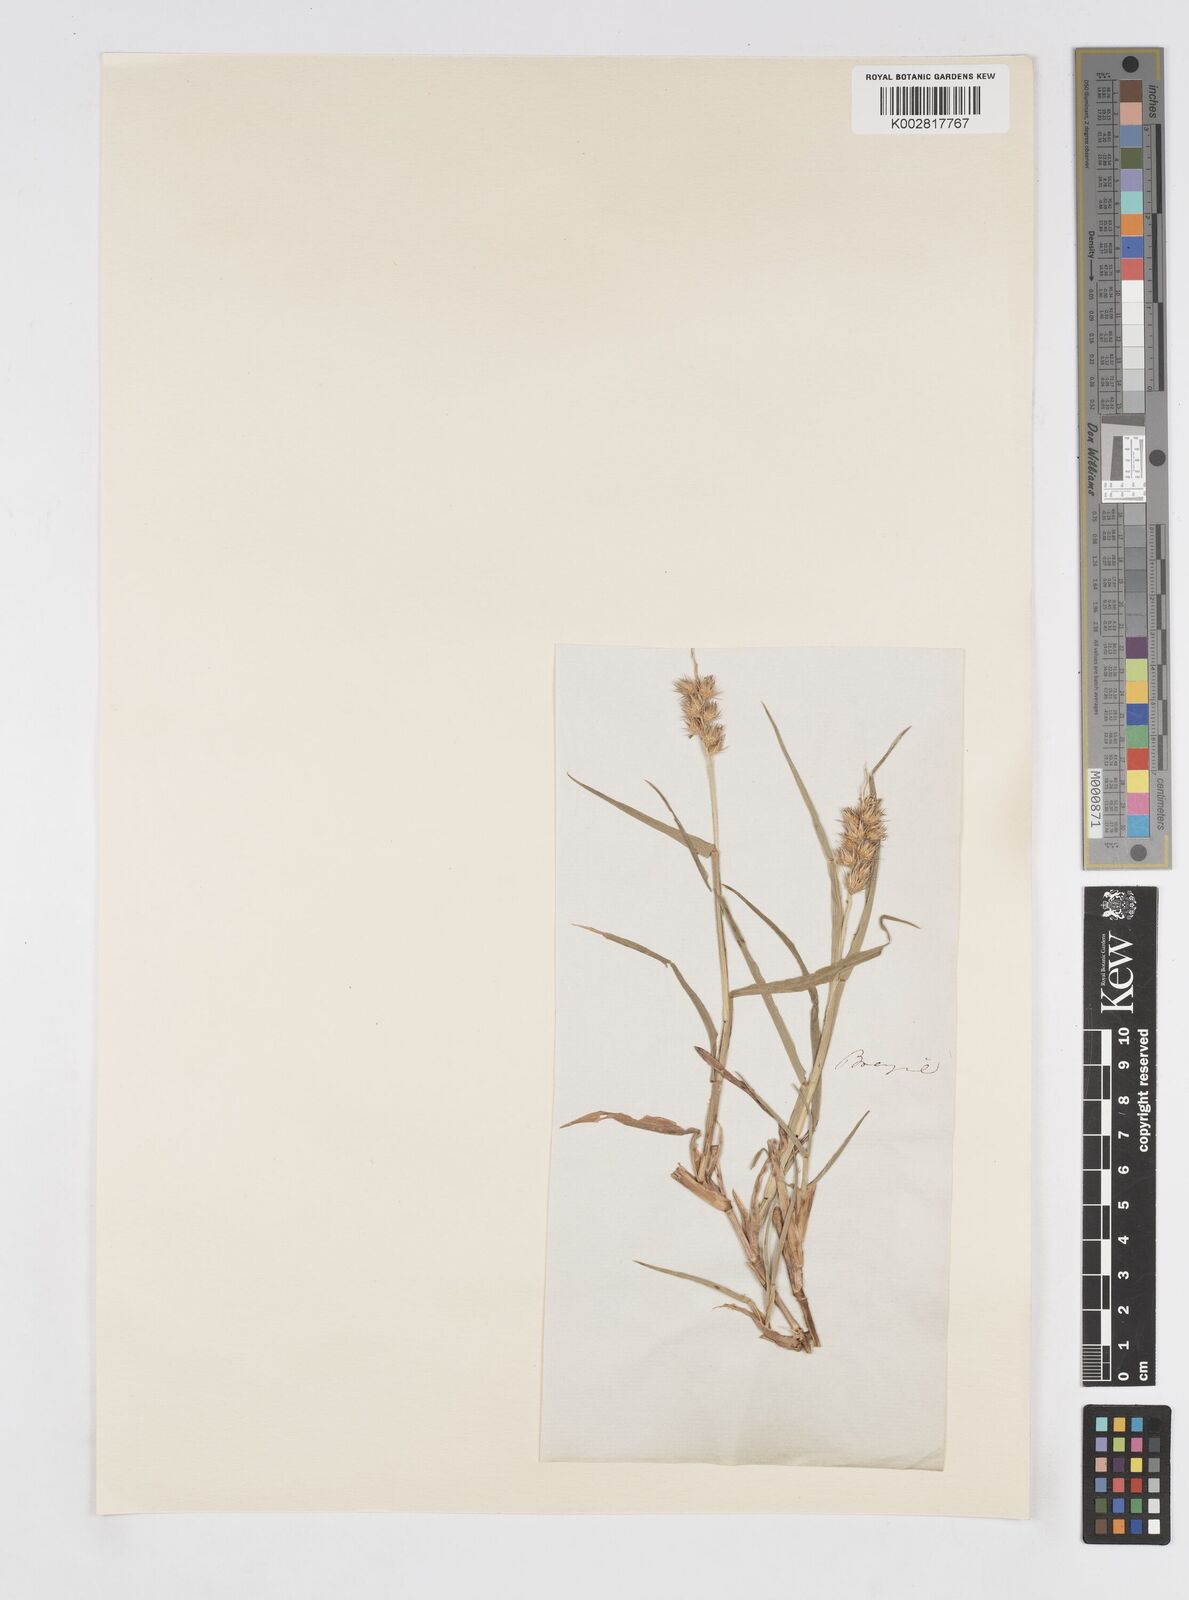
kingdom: Plantae
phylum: Tracheophyta
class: Liliopsida
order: Poales
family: Poaceae
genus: Cenchrus
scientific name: Cenchrus
